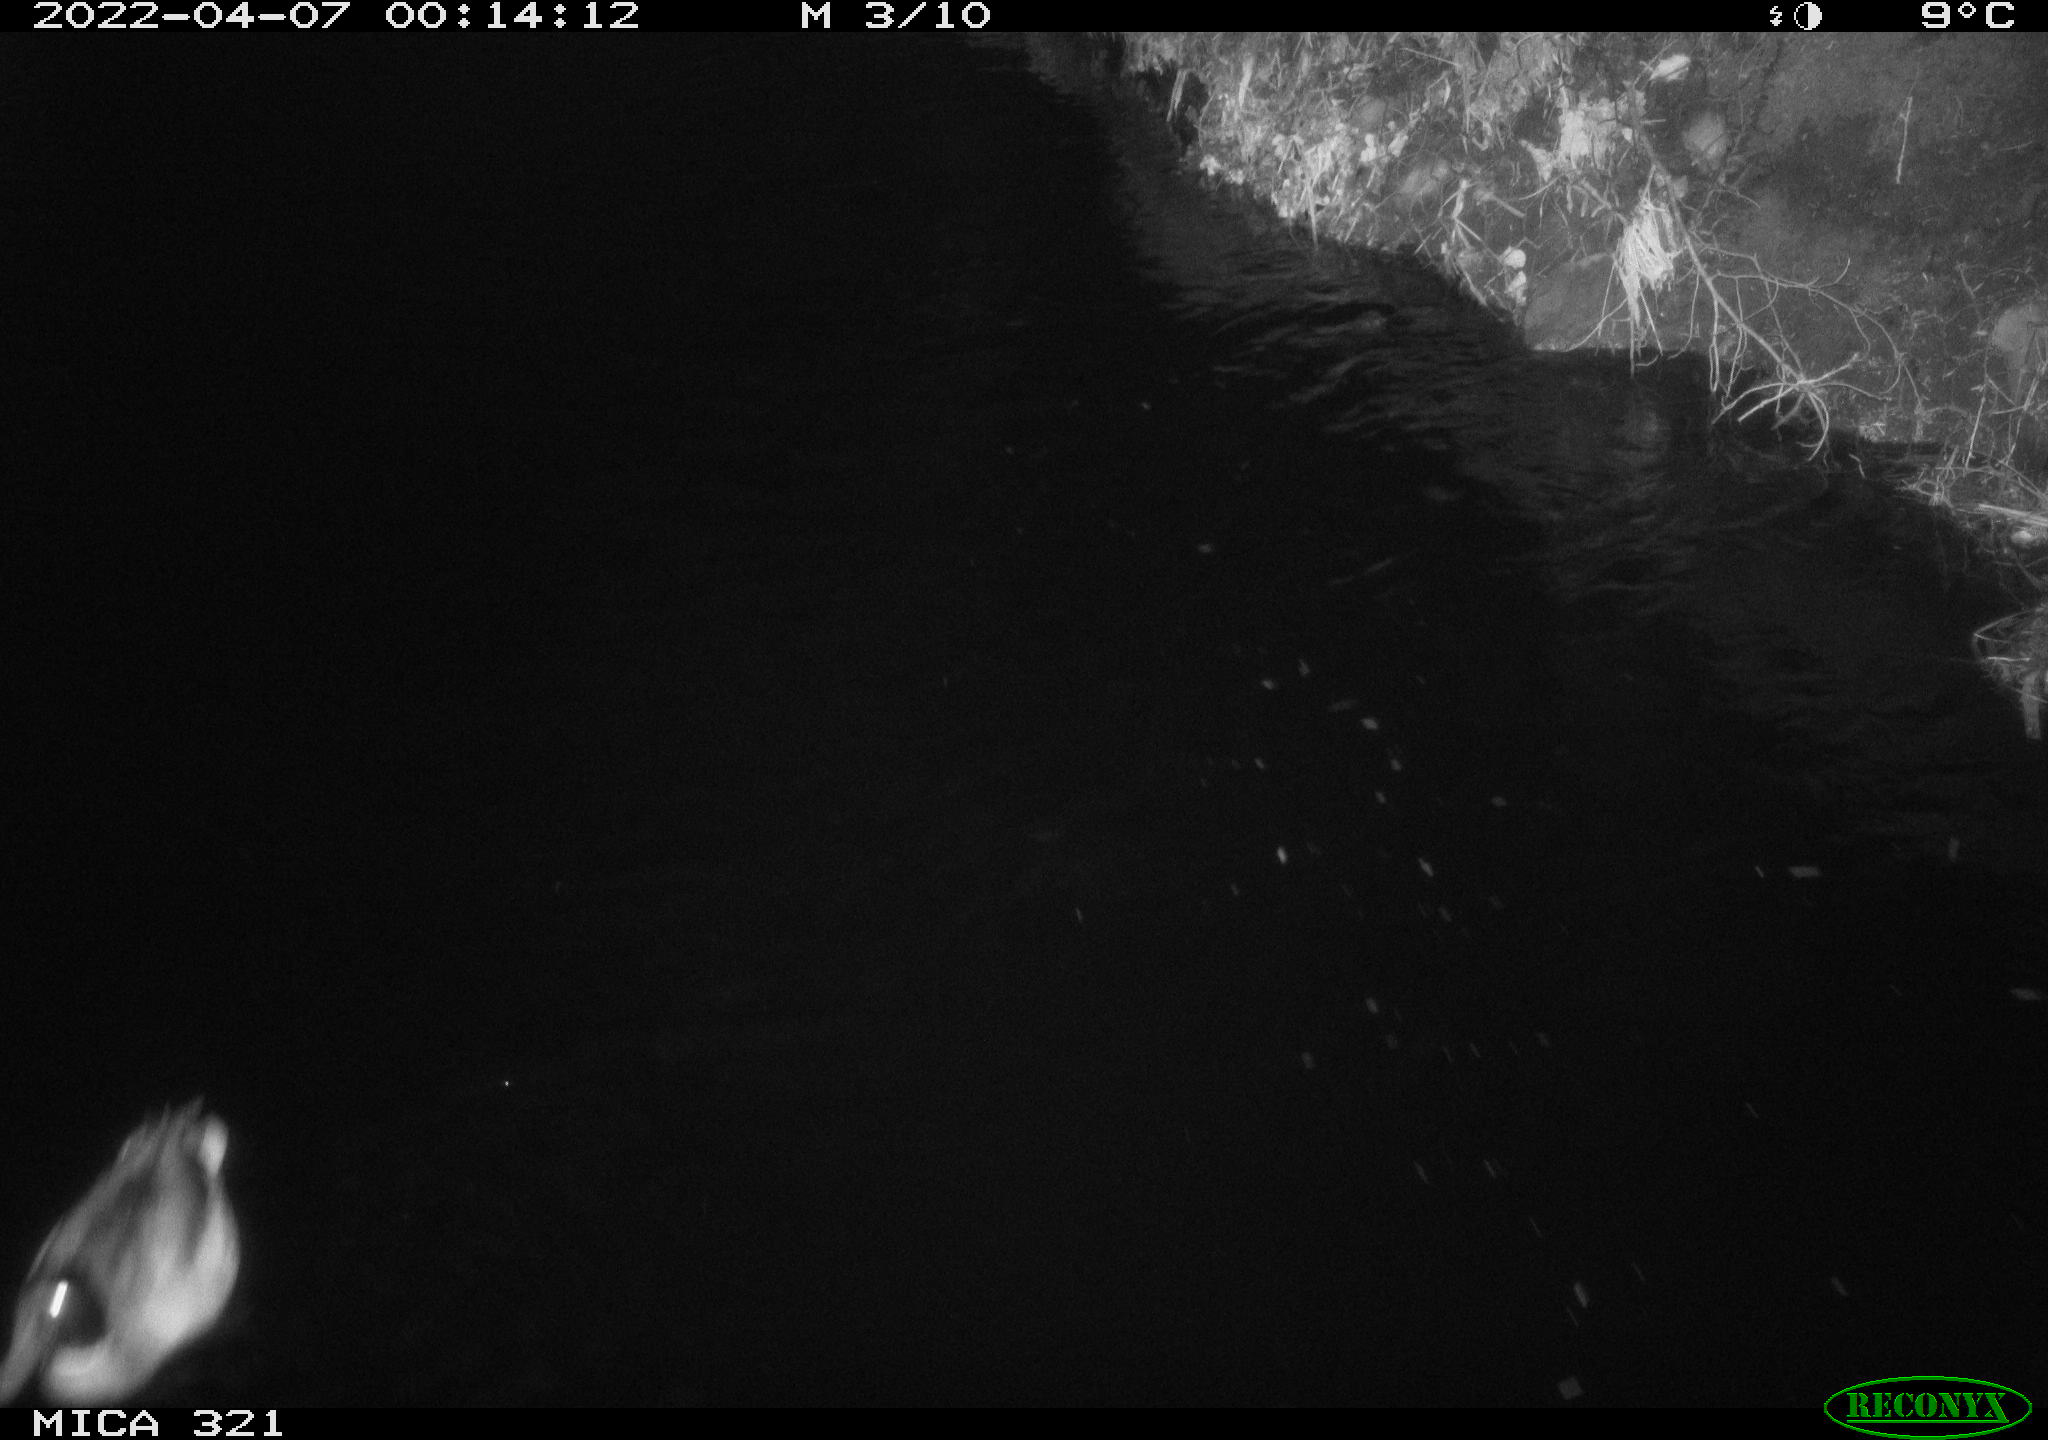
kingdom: Animalia
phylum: Chordata
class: Aves
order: Anseriformes
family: Anatidae
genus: Anas
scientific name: Anas platyrhynchos
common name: Mallard
